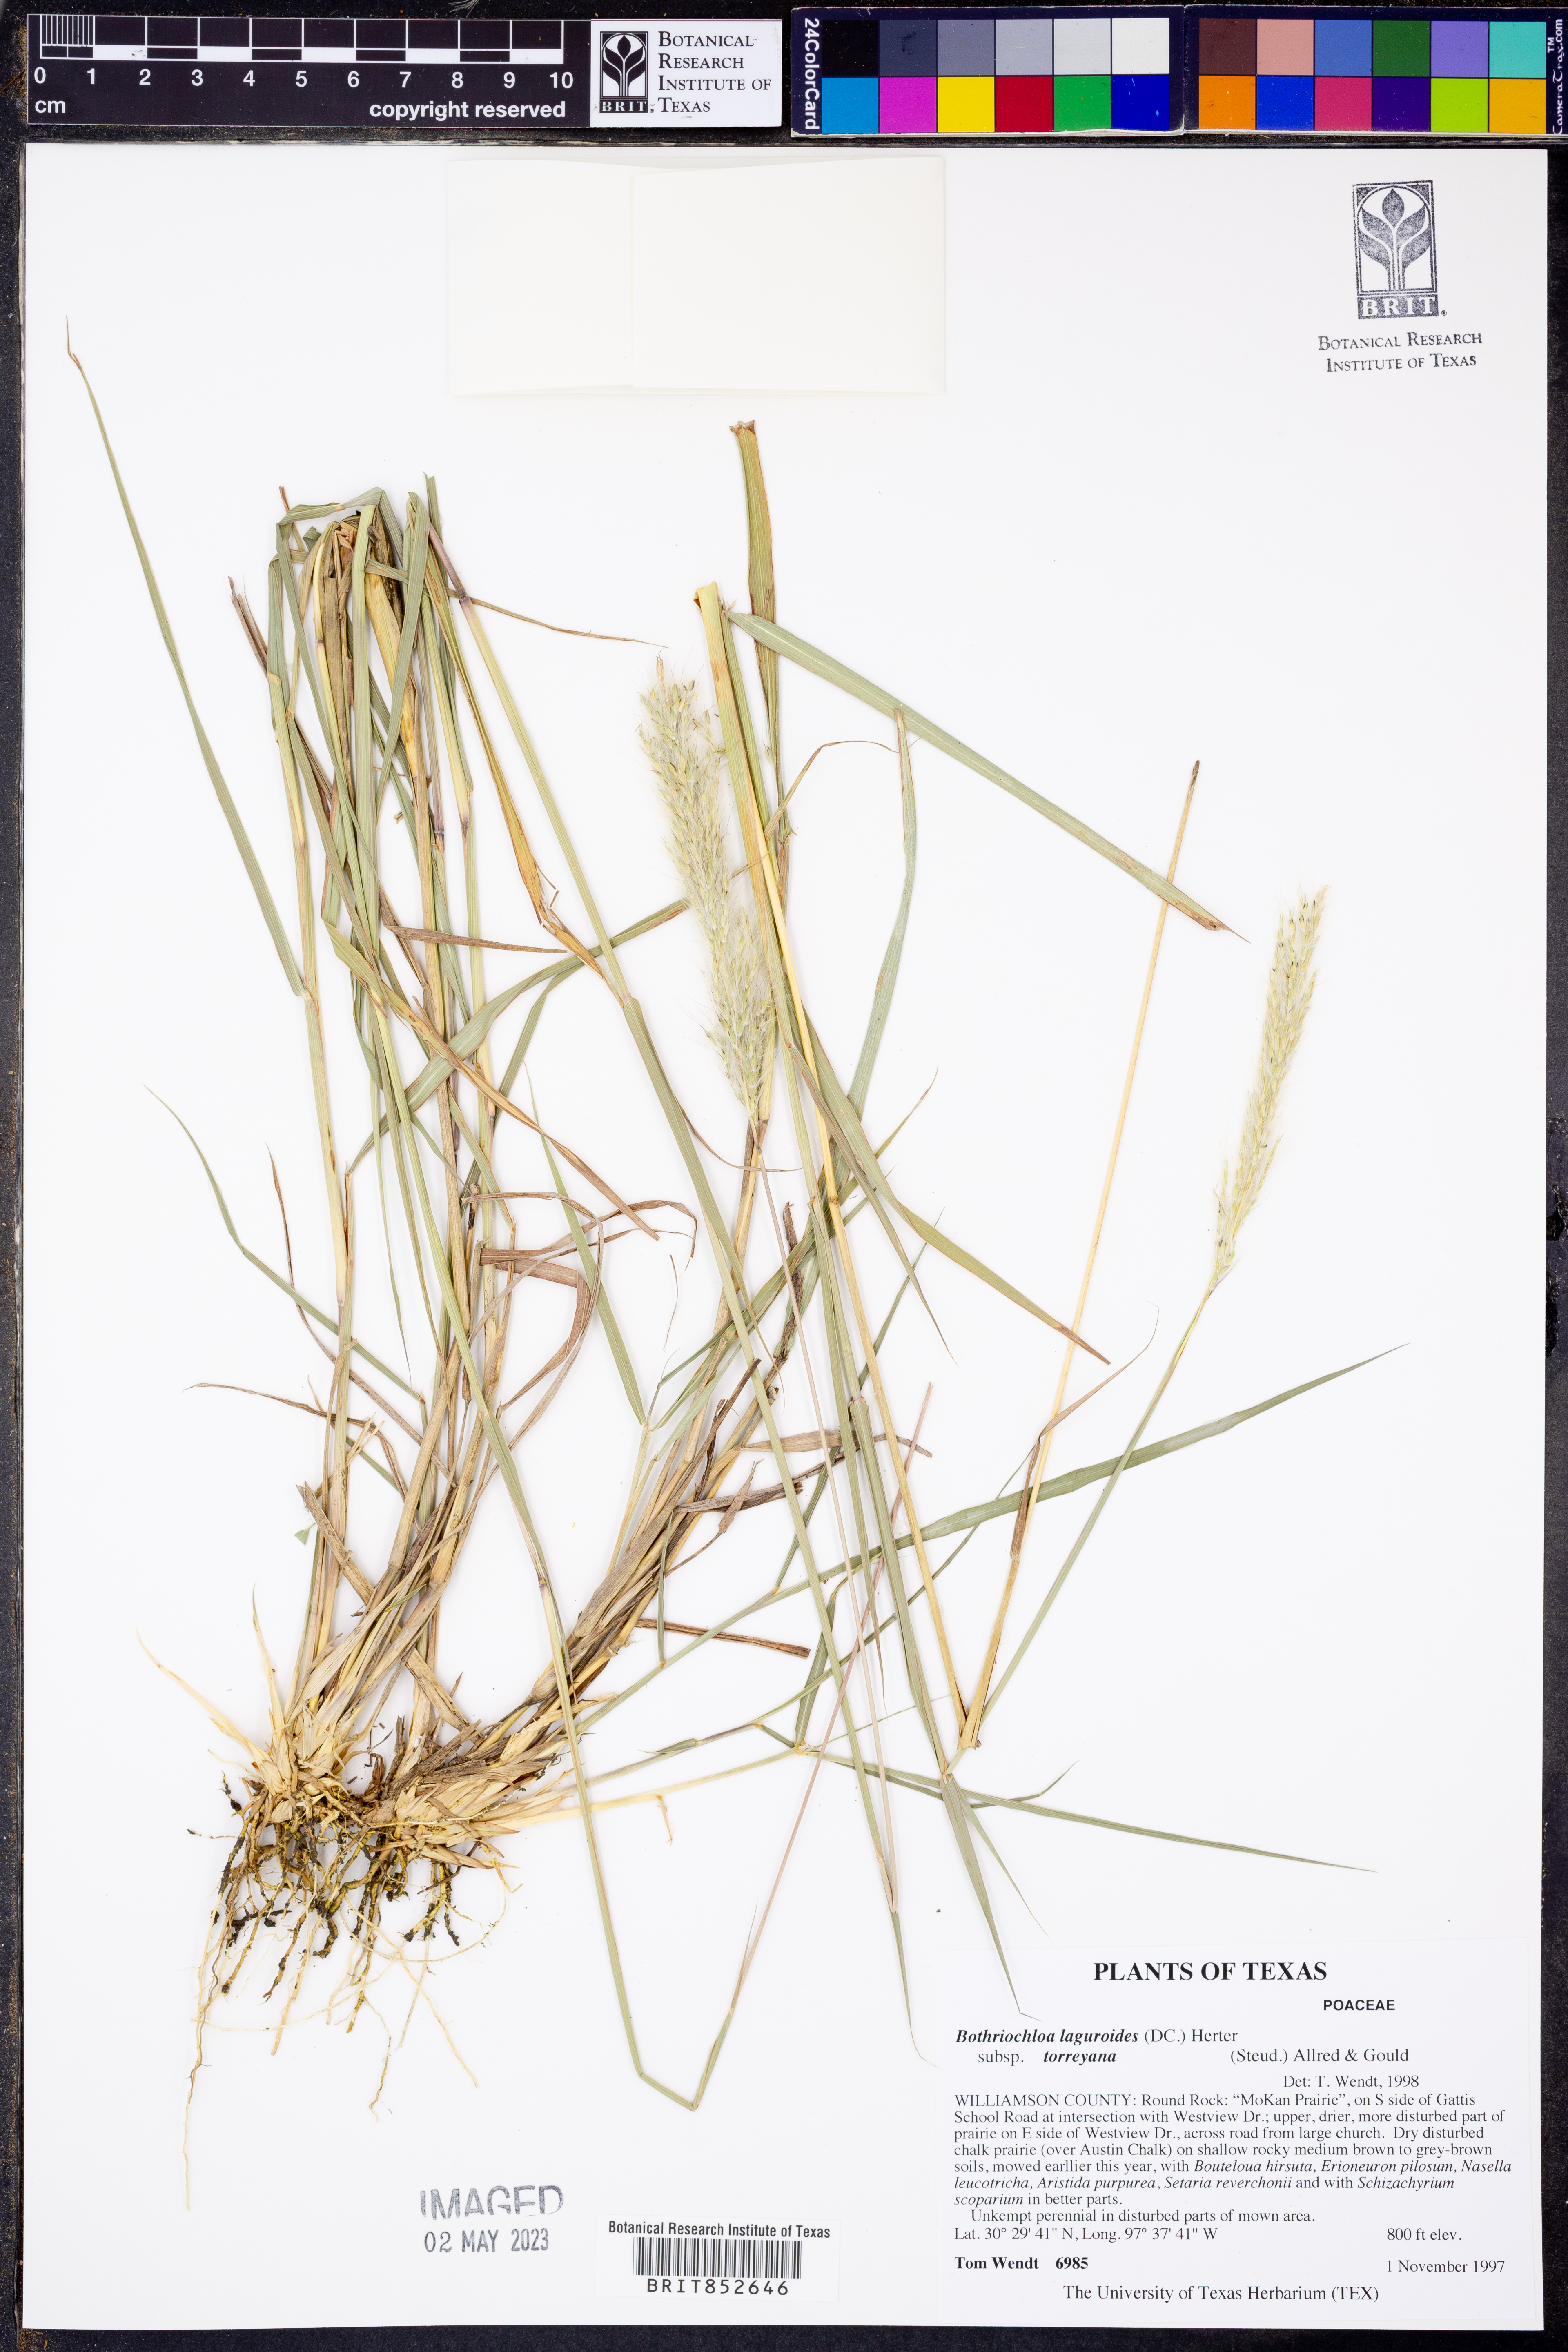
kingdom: Plantae
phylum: Tracheophyta
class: Liliopsida
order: Poales
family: Poaceae
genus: Bothriochloa
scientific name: Bothriochloa torreyana
